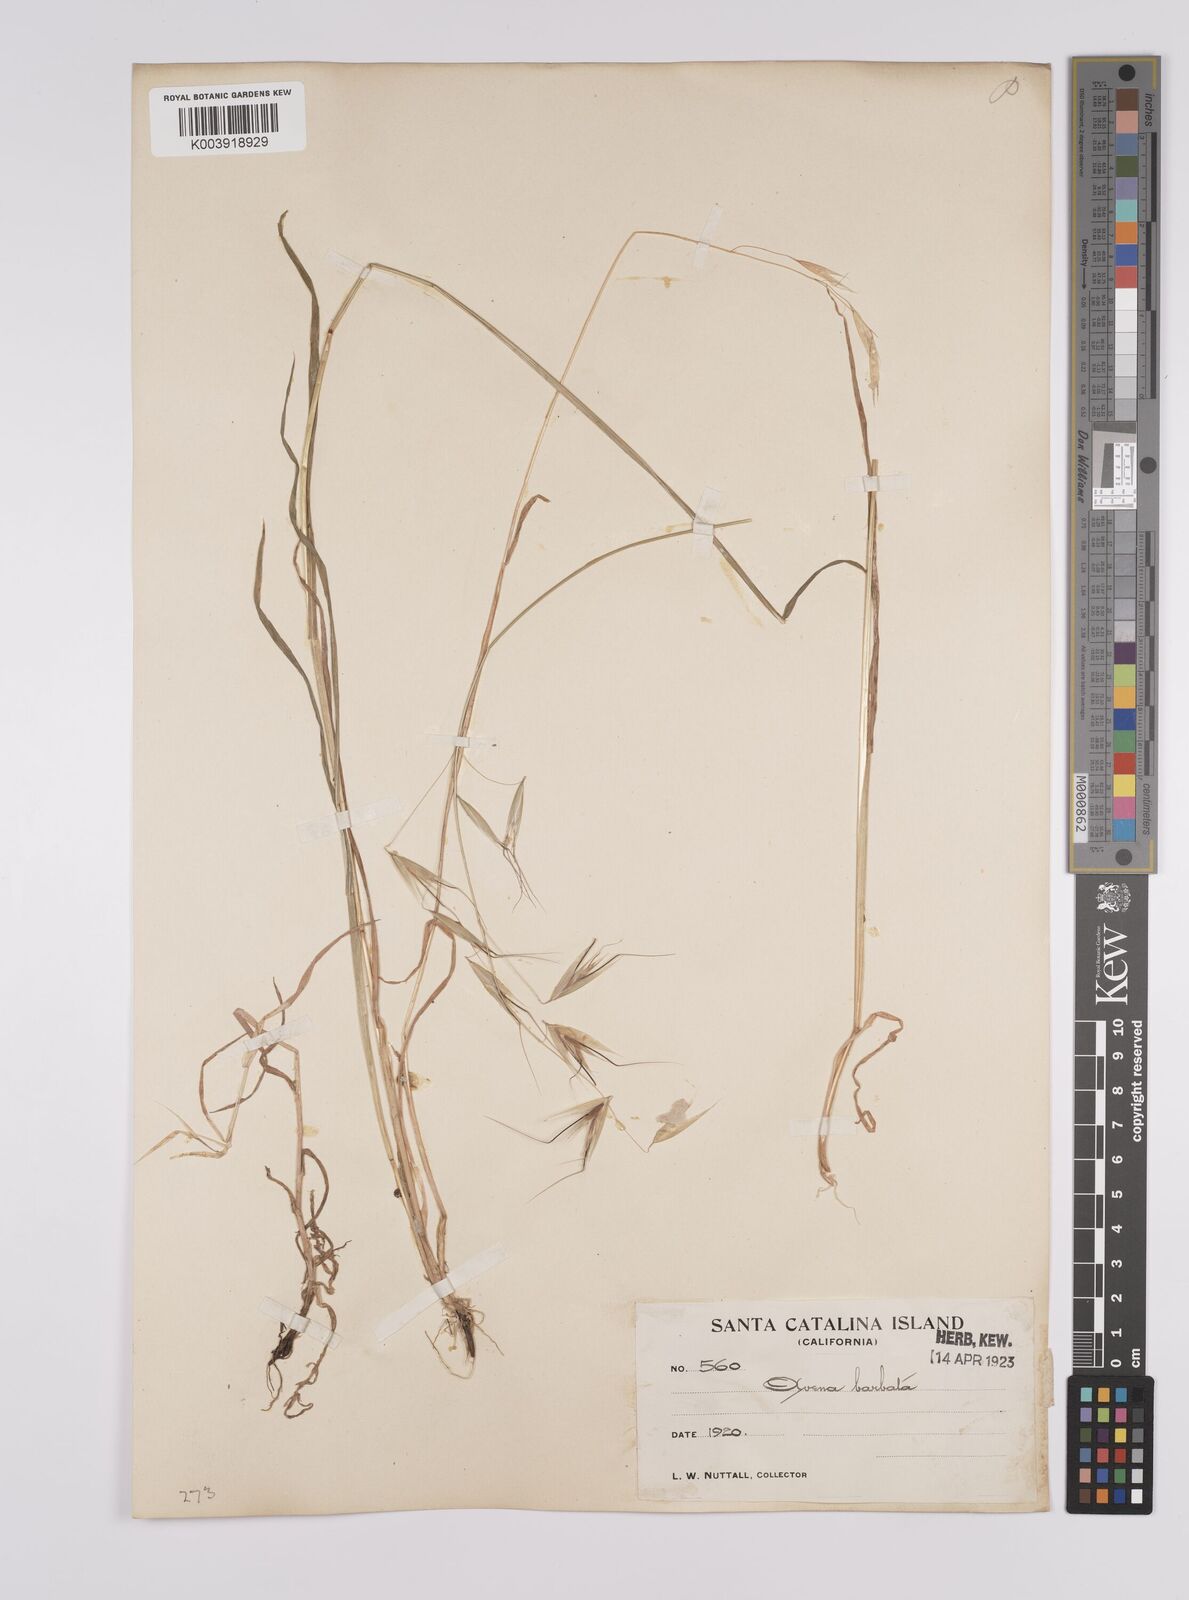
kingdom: Plantae
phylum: Tracheophyta
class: Liliopsida
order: Poales
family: Poaceae
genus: Avena
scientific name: Avena
